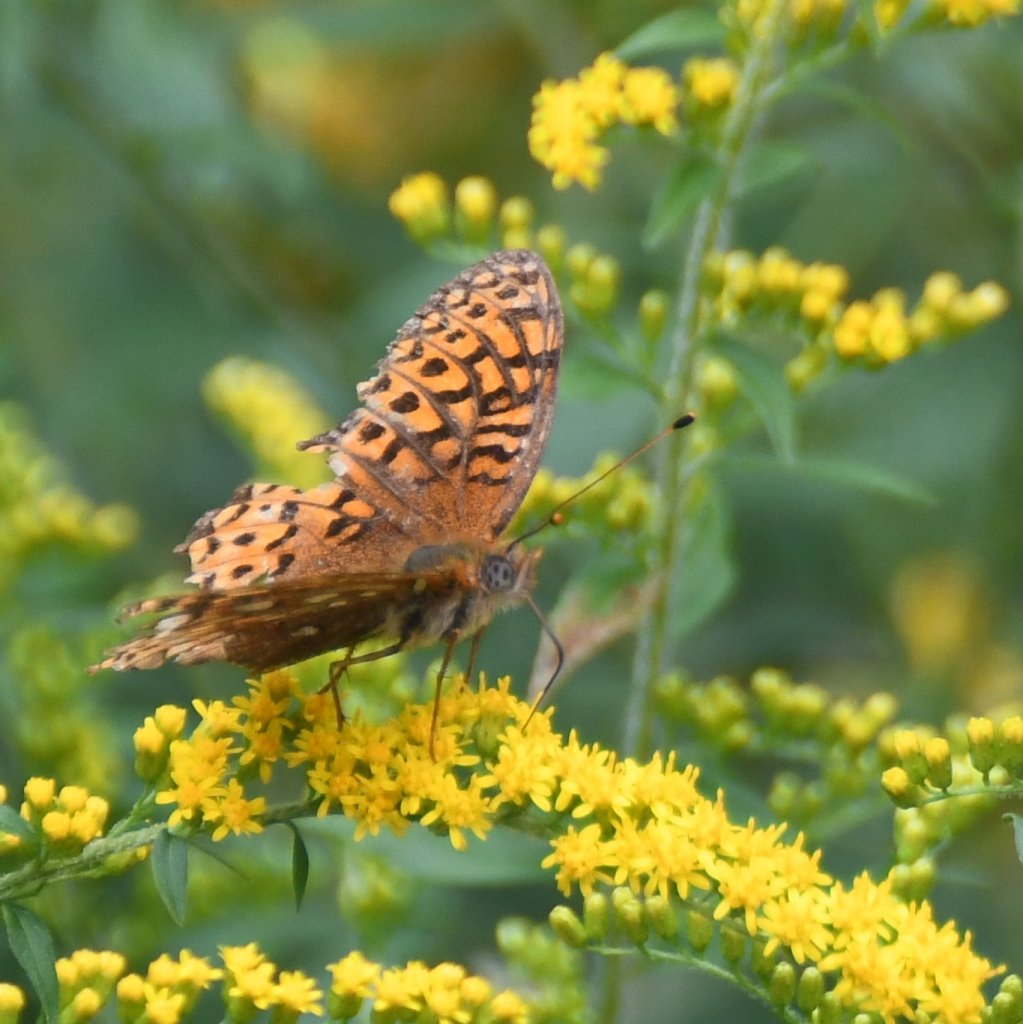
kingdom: Animalia
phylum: Arthropoda
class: Insecta
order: Lepidoptera
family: Nymphalidae
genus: Speyeria
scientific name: Speyeria atlantis
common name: Atlantis Fritillary
